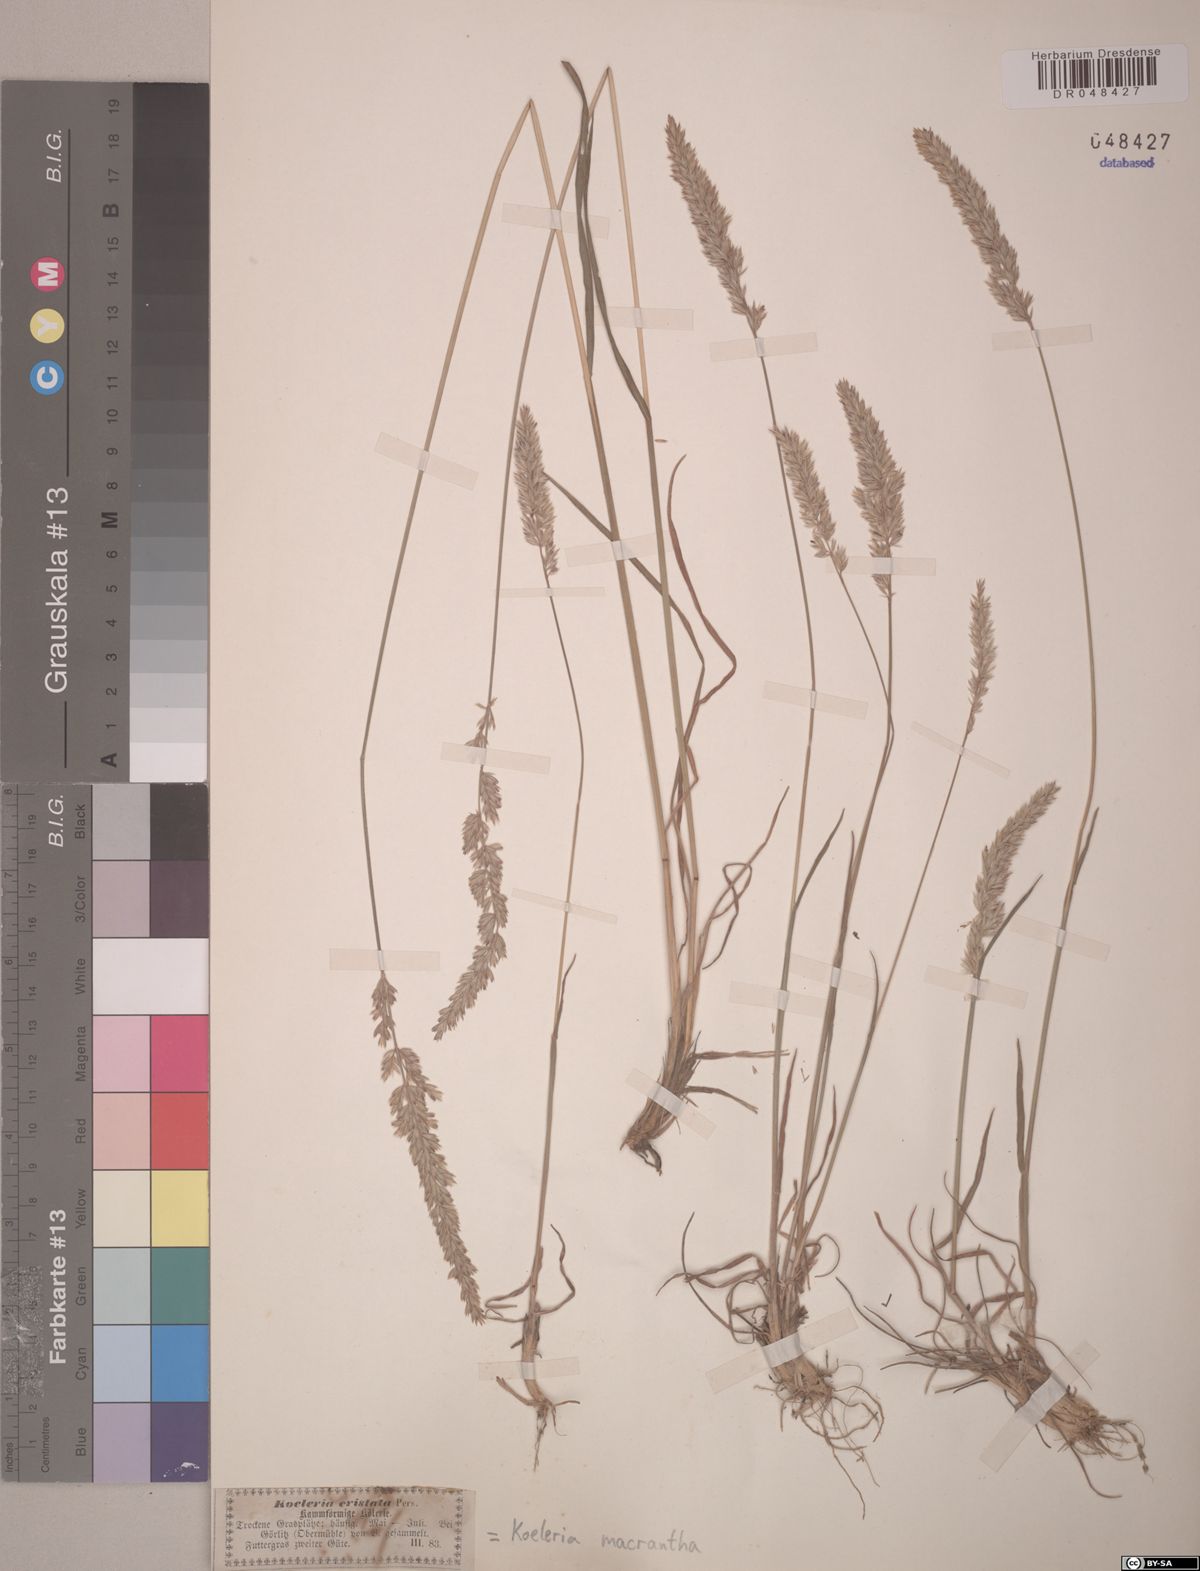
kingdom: Plantae
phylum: Tracheophyta
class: Liliopsida
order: Poales
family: Poaceae
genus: Koeleria
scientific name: Koeleria macrantha
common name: Crested hair-grass
